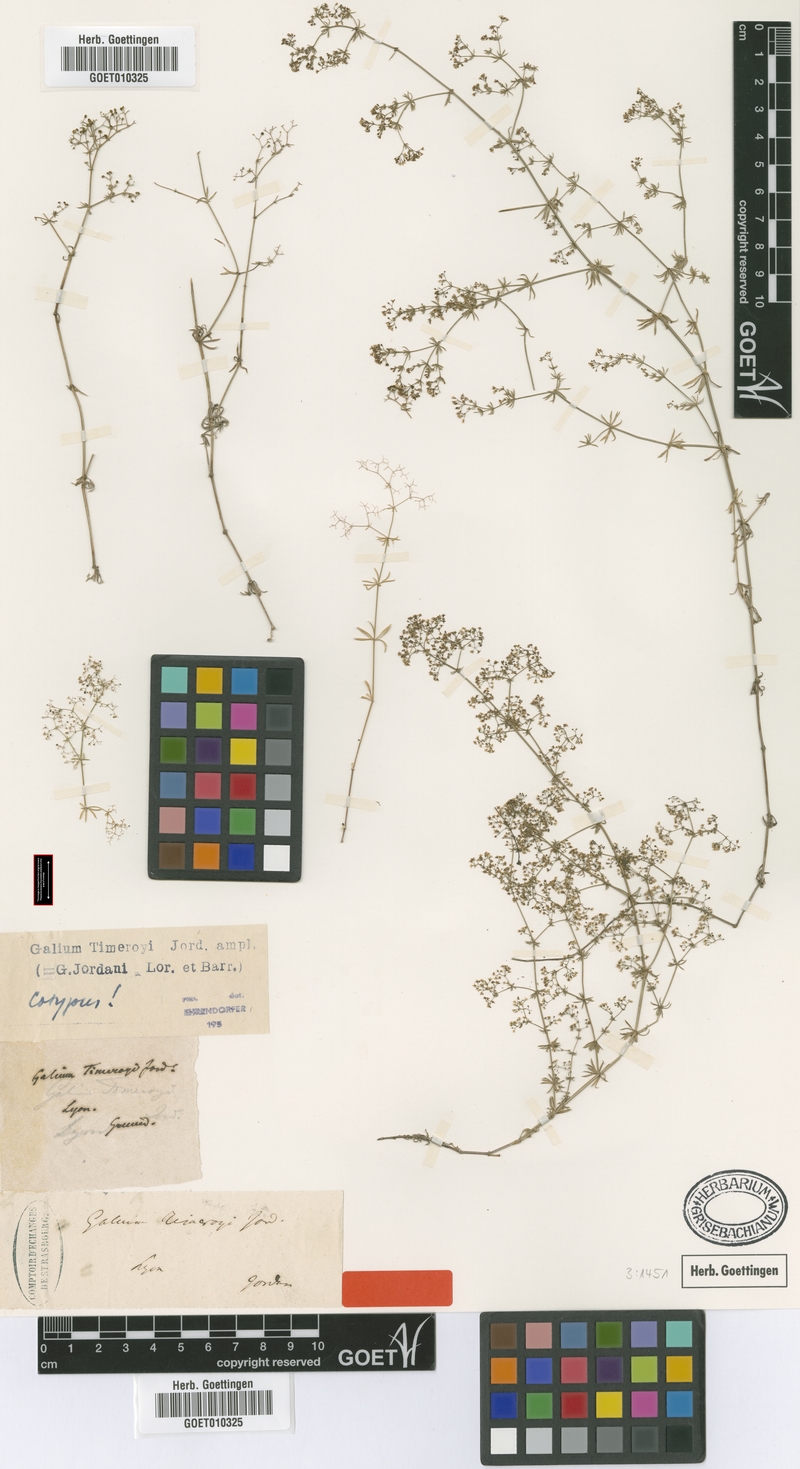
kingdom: Plantae
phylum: Tracheophyta
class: Magnoliopsida
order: Gentianales
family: Rubiaceae
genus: Galium
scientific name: Galium timeroyi
